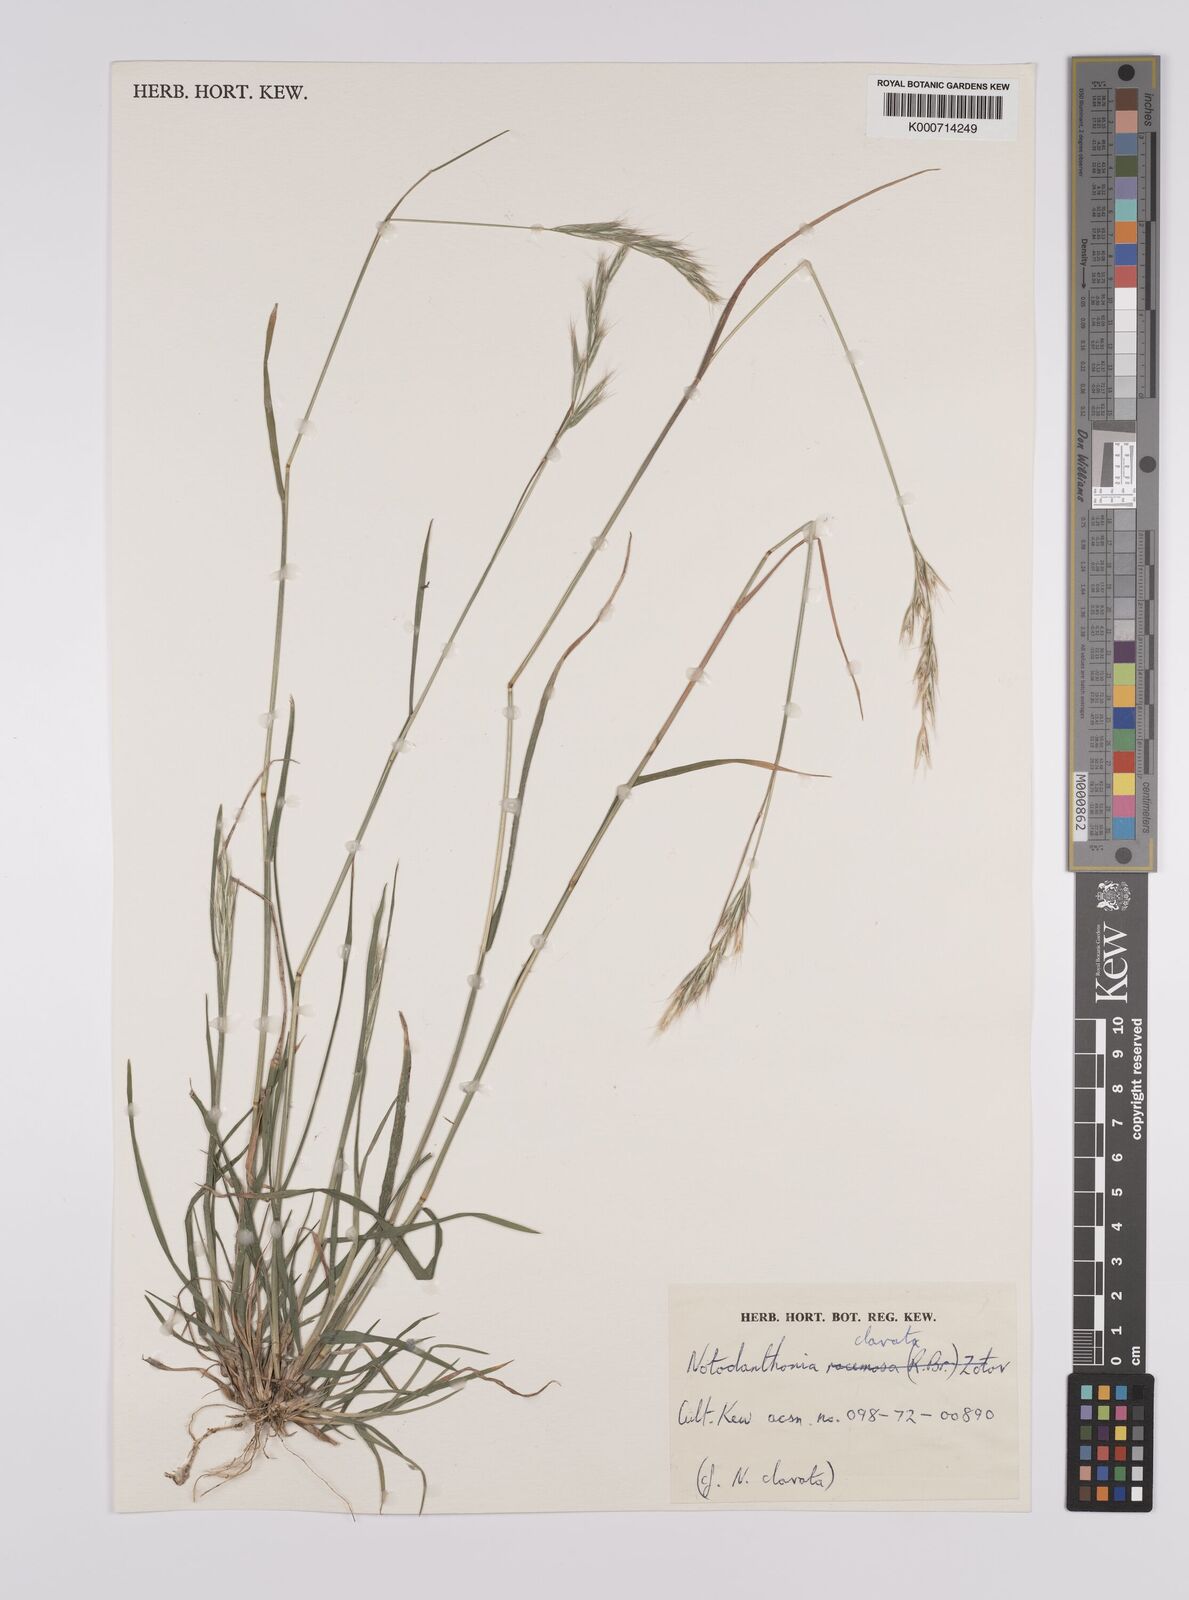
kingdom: Plantae
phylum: Tracheophyta
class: Liliopsida
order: Poales
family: Poaceae
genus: Rytidosperma
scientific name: Rytidosperma clavatum
